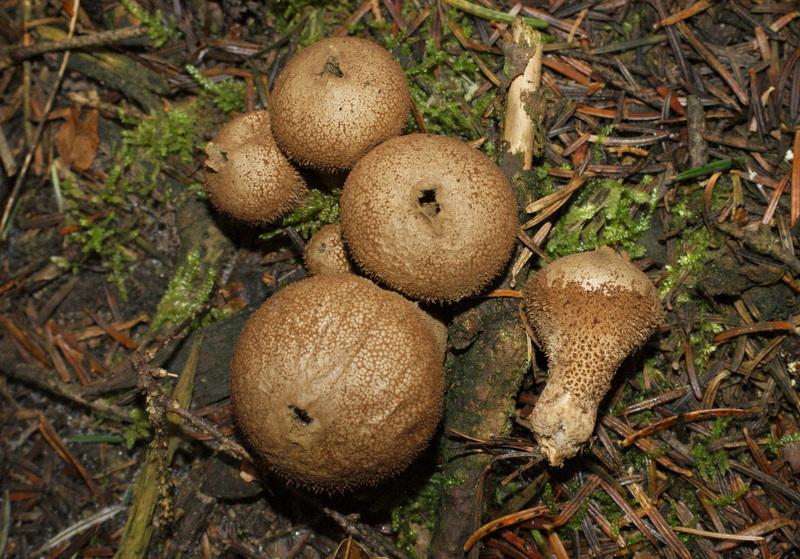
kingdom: Fungi
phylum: Basidiomycota
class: Agaricomycetes
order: Agaricales
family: Lycoperdaceae
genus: Lycoperdon
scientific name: Lycoperdon nigrescens
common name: sortagtig støvbold
